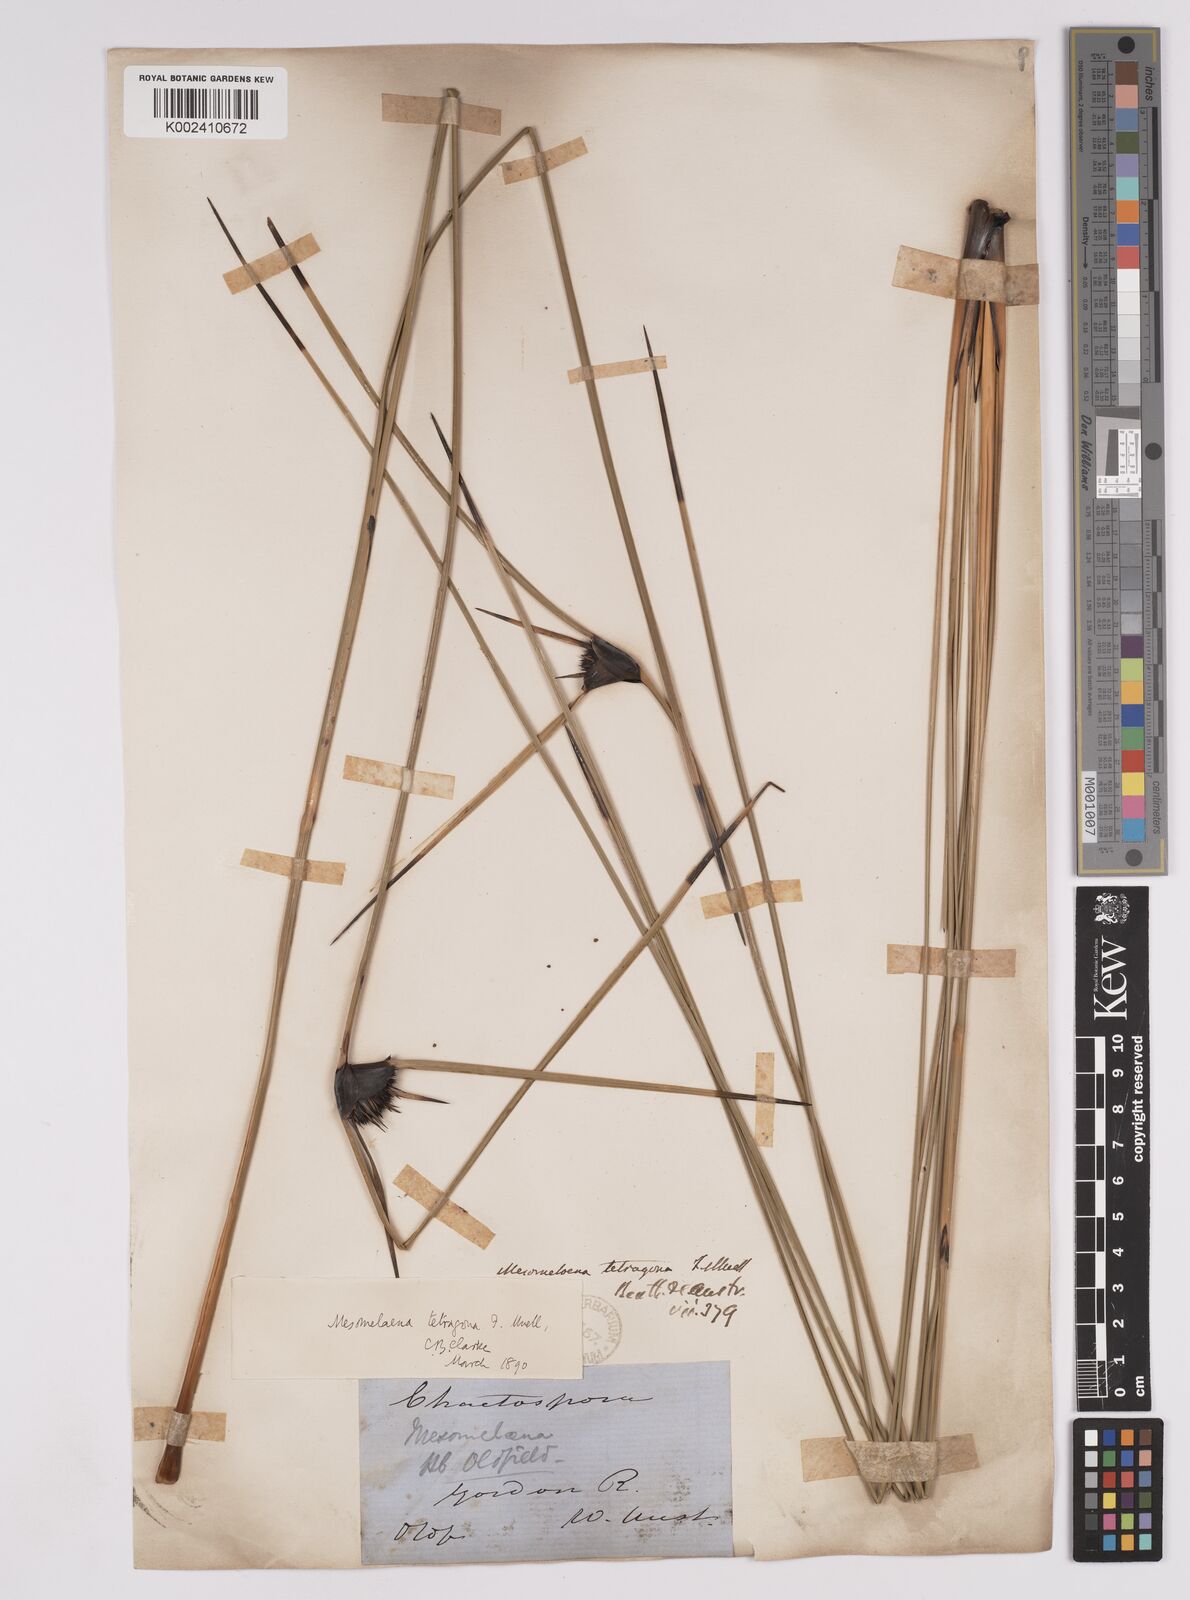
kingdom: Plantae
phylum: Tracheophyta
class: Liliopsida
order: Poales
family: Cyperaceae
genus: Mesomelaena
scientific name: Mesomelaena tetragona
